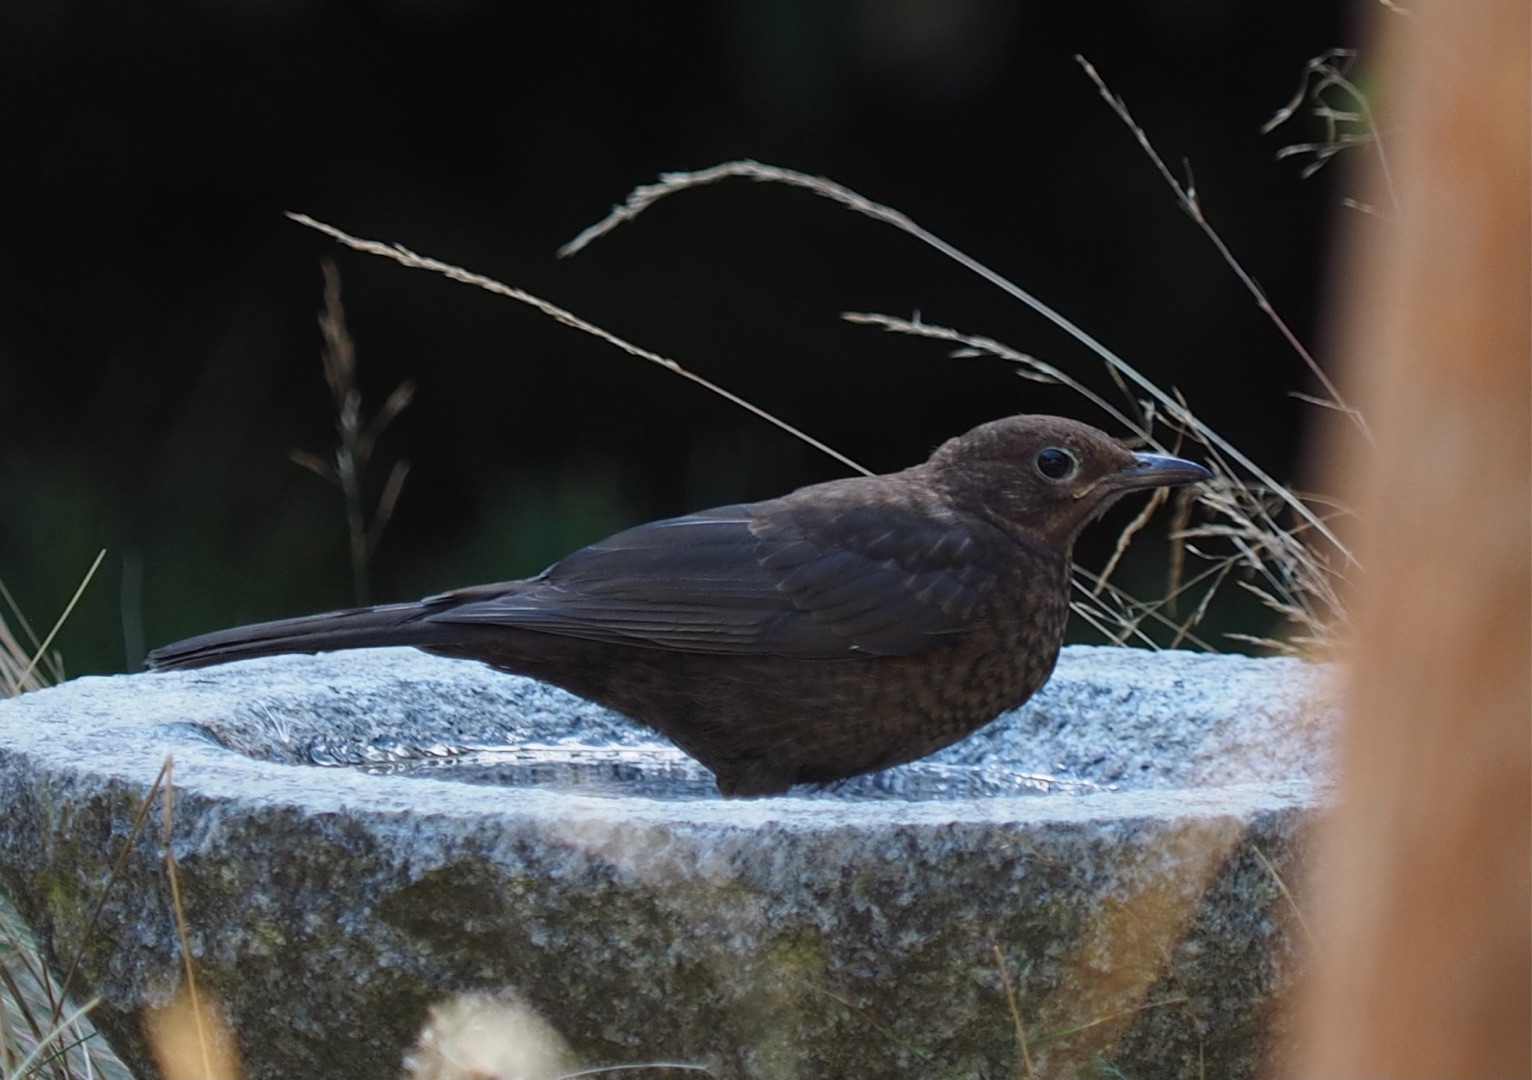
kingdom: Animalia
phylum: Chordata
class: Aves
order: Passeriformes
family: Turdidae
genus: Turdus
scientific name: Turdus merula
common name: Solsort
